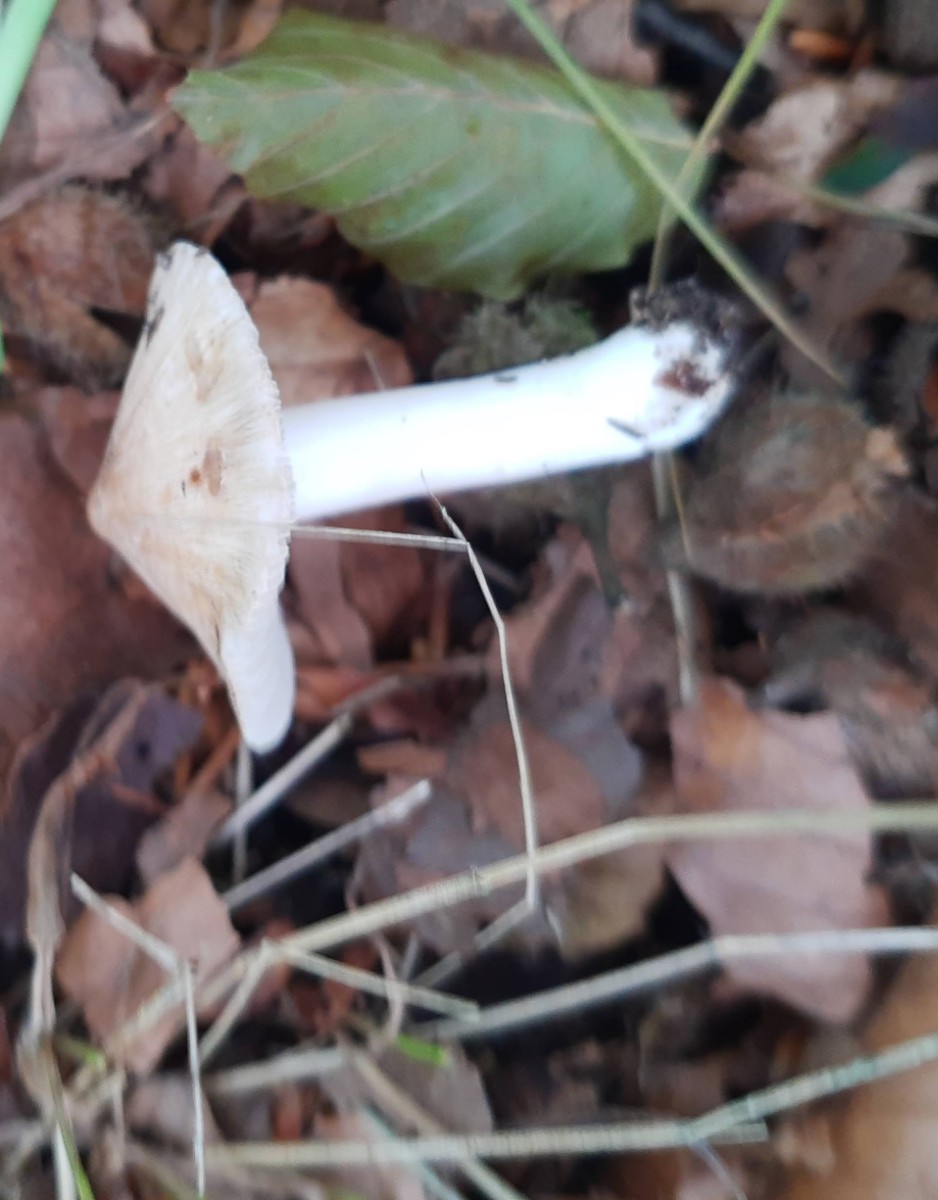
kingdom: Fungi
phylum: Basidiomycota
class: Agaricomycetes
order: Agaricales
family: Inocybaceae
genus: Pseudosperma
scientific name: Pseudosperma
